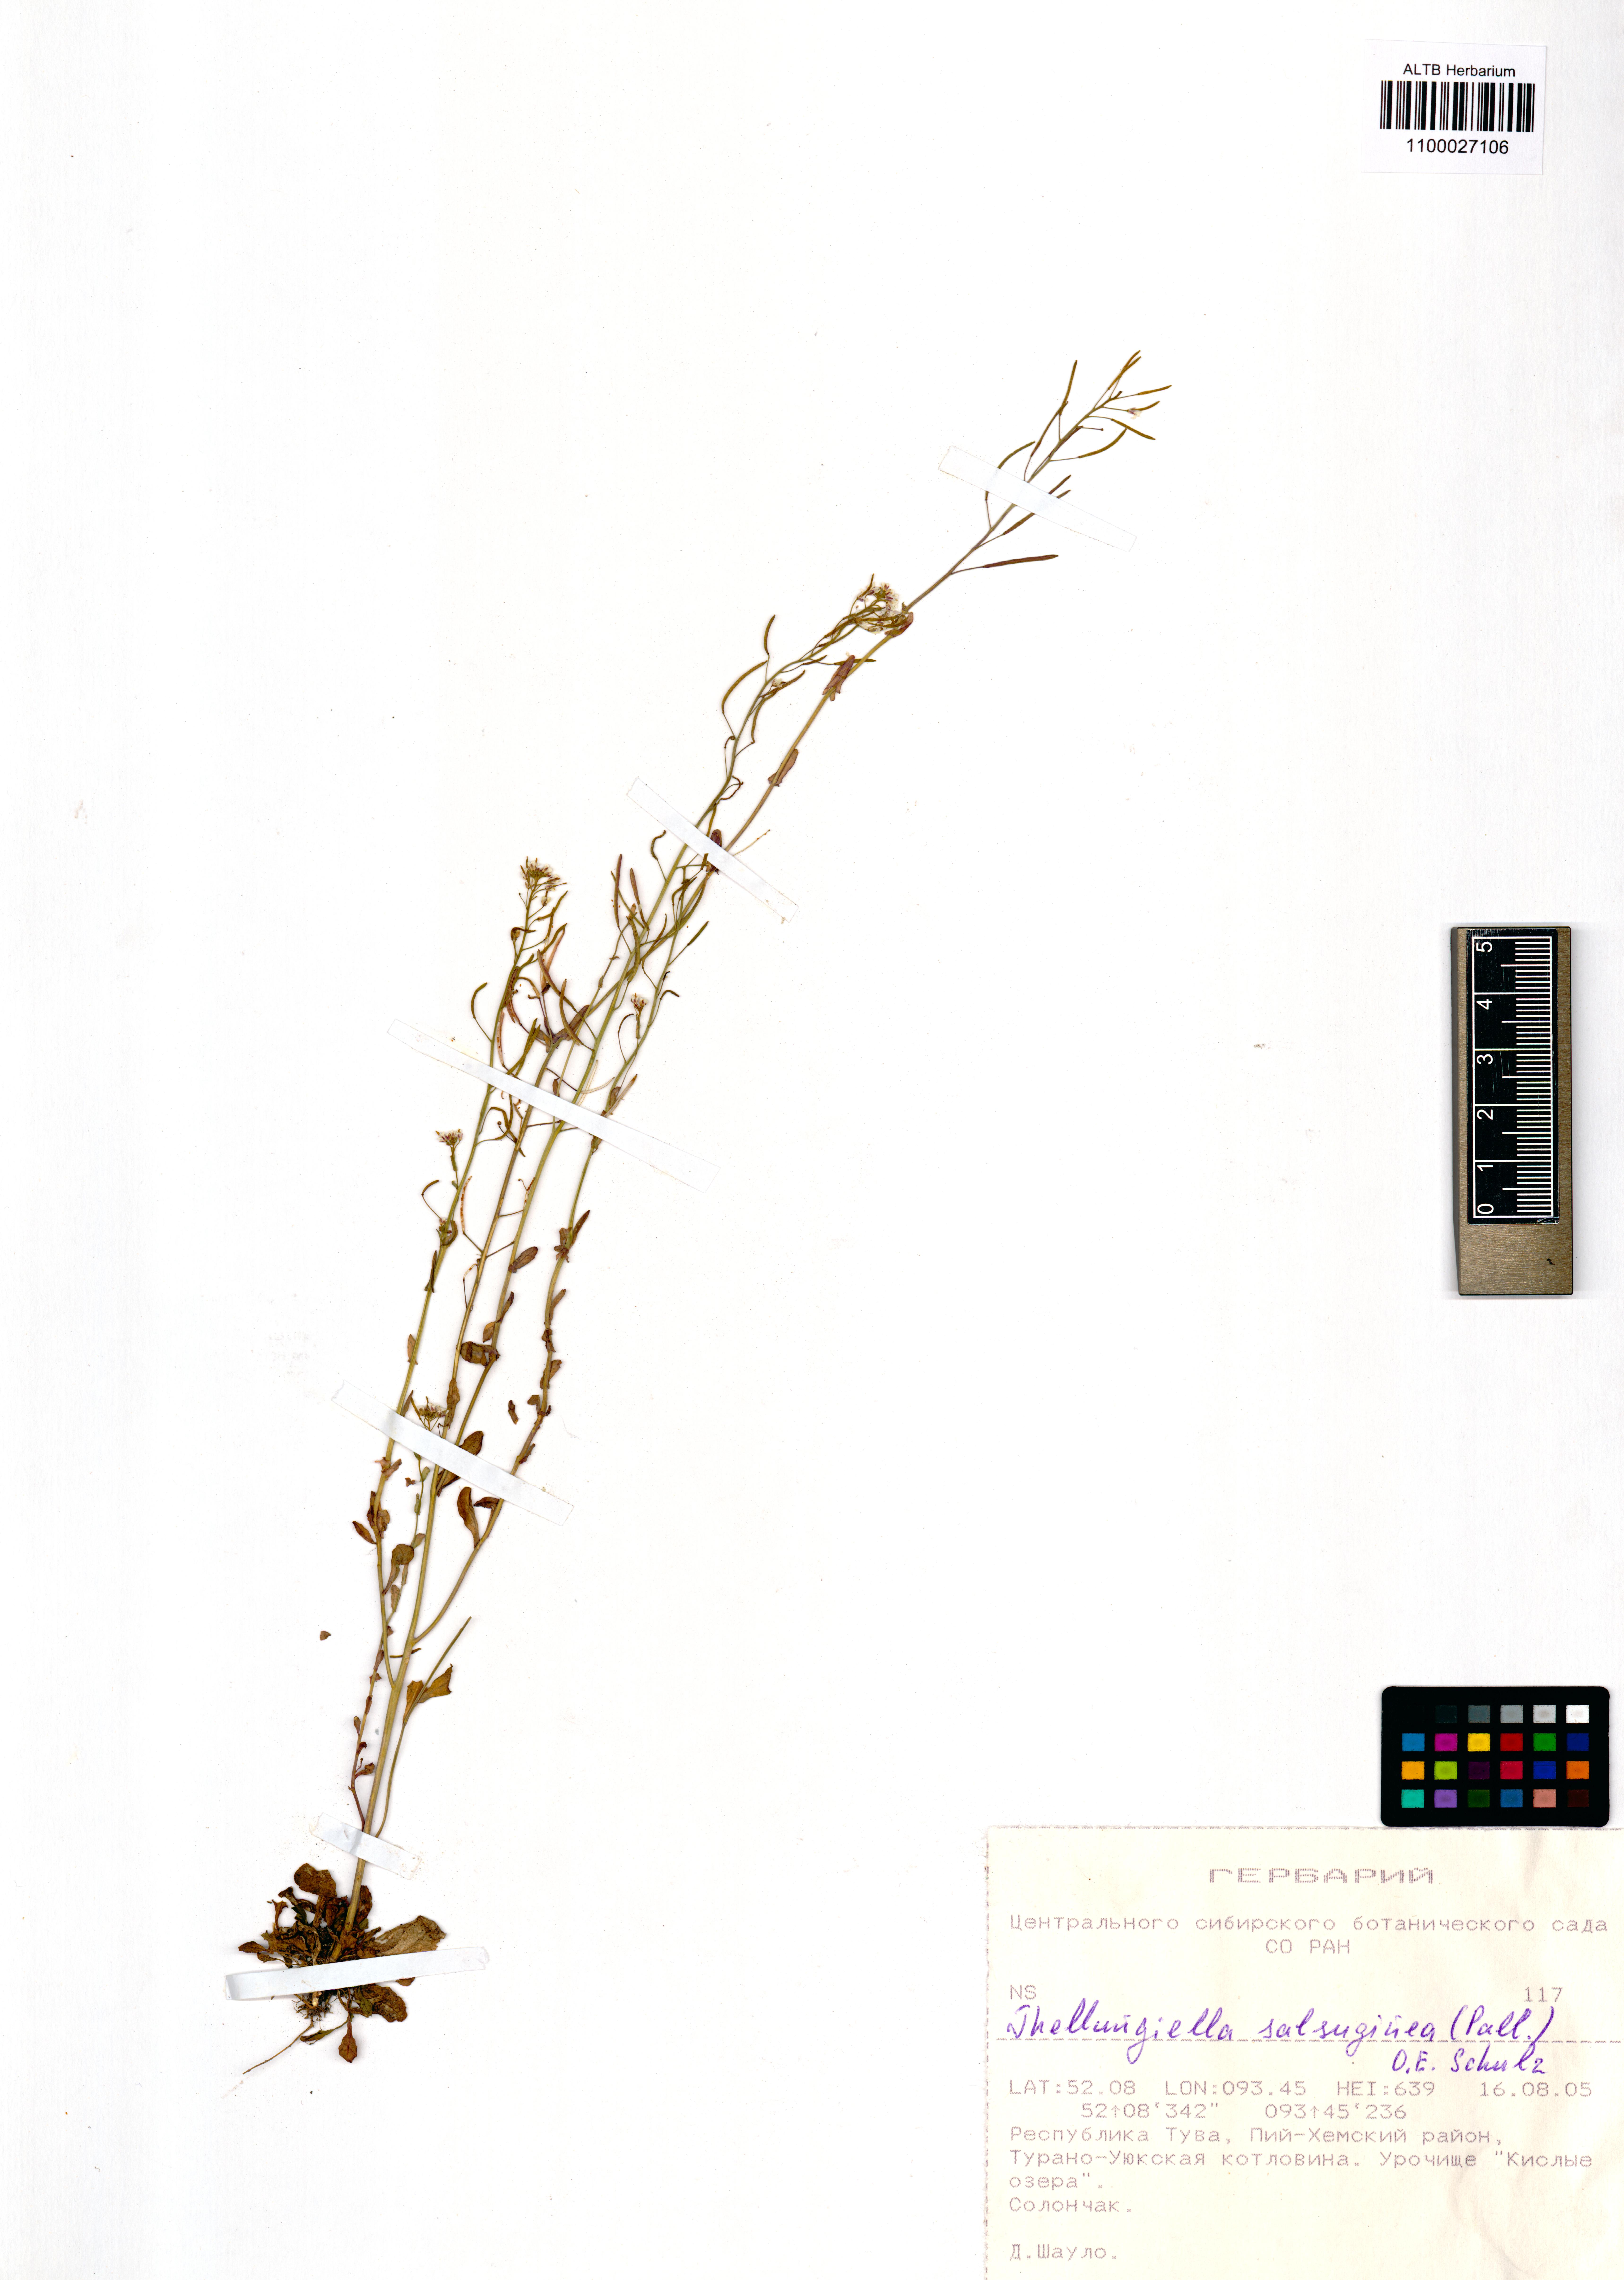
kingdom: Plantae
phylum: Tracheophyta
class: Magnoliopsida
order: Brassicales
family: Brassicaceae
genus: Eutrema
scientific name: Eutrema salsugineum
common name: Mouse-ear cress
